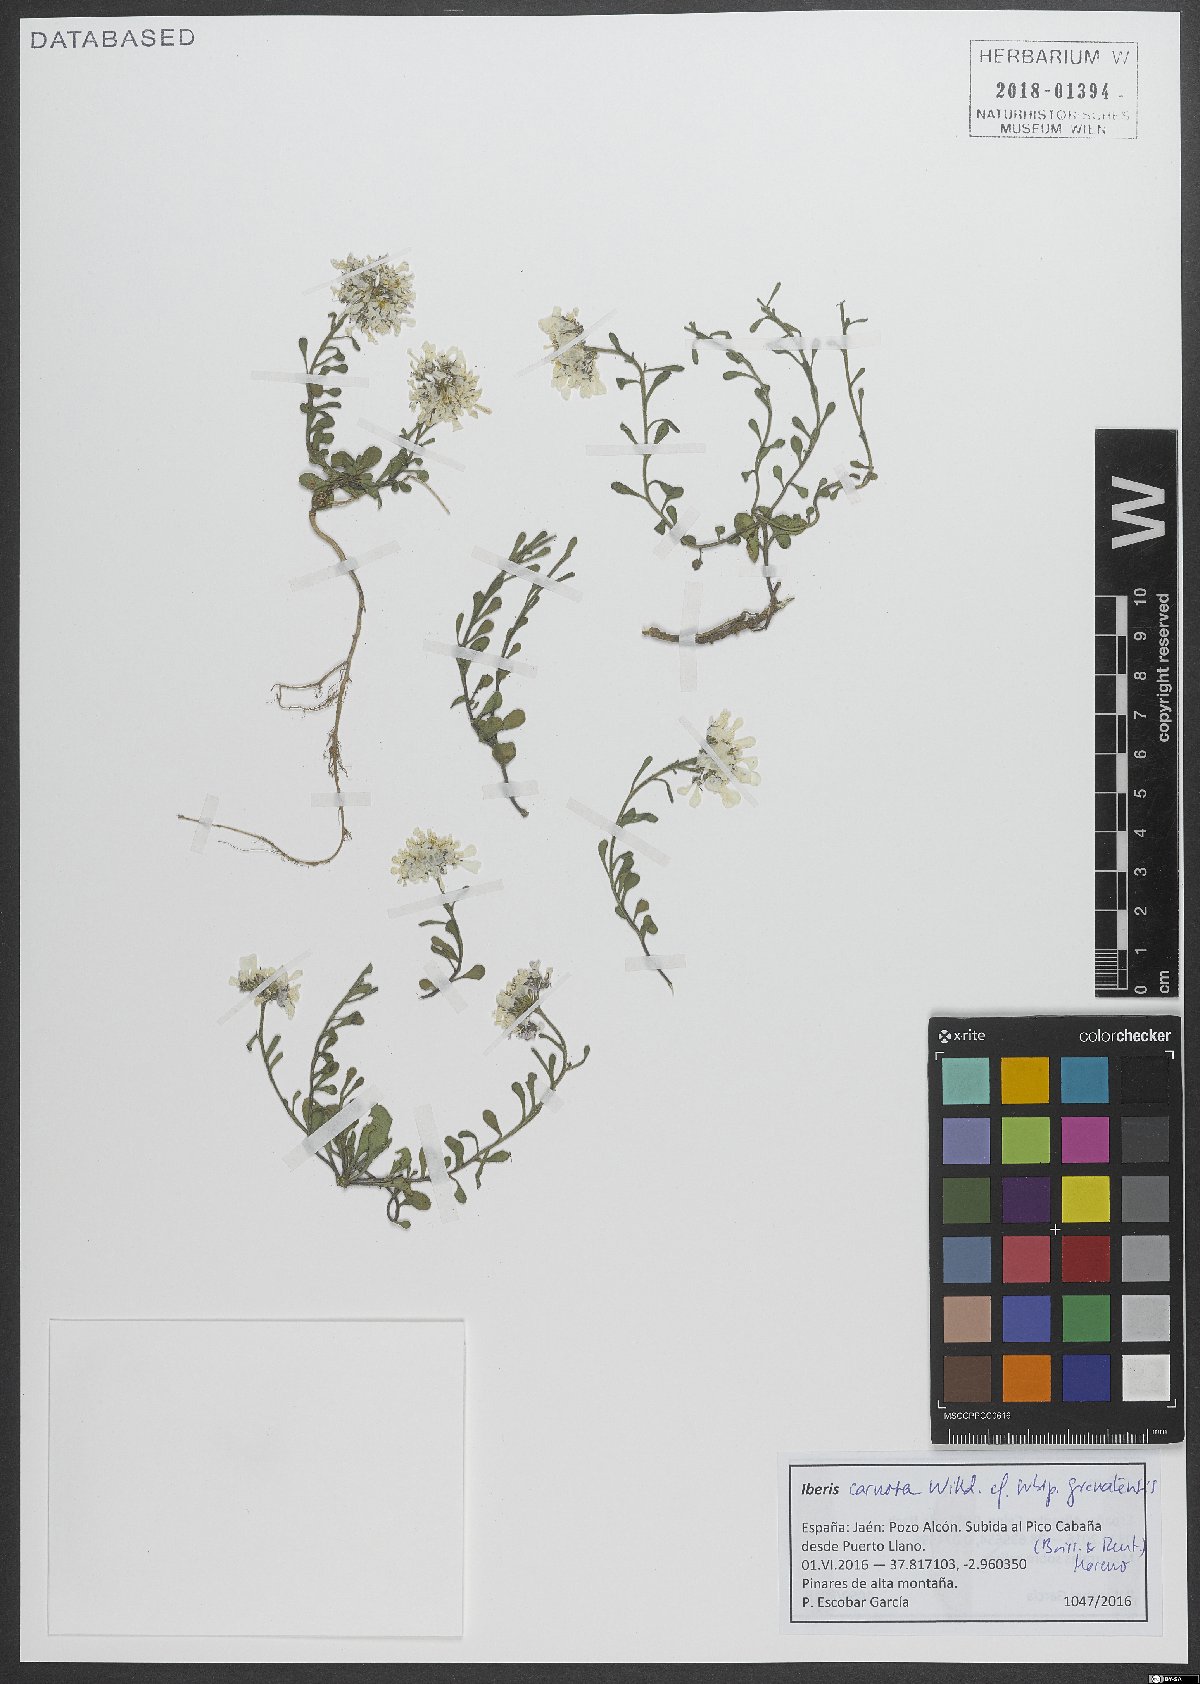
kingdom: Plantae
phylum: Tracheophyta
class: Magnoliopsida
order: Brassicales
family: Brassicaceae
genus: Iberis
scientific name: Iberis carnosa
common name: Pruit's candytuft
